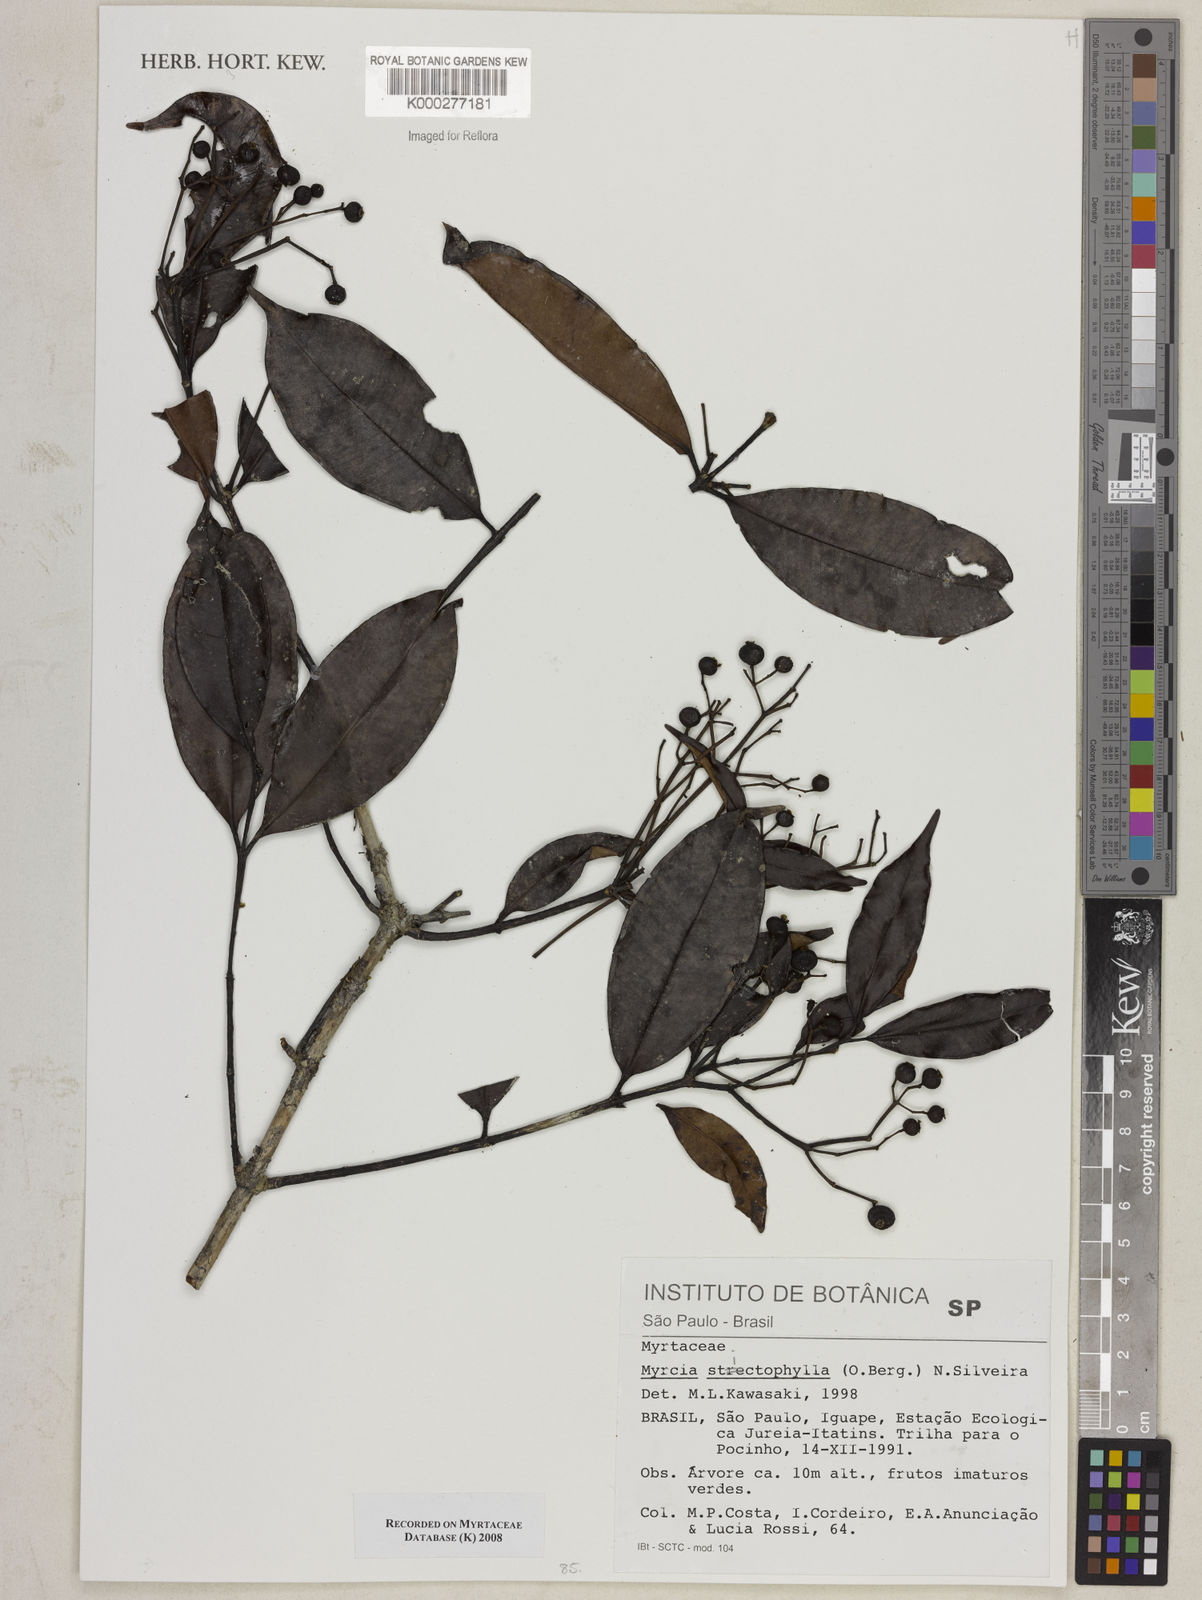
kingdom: Plantae
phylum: Tracheophyta
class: Magnoliopsida
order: Myrtales
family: Myrtaceae
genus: Myrcia
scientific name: Myrcia stictophylla
